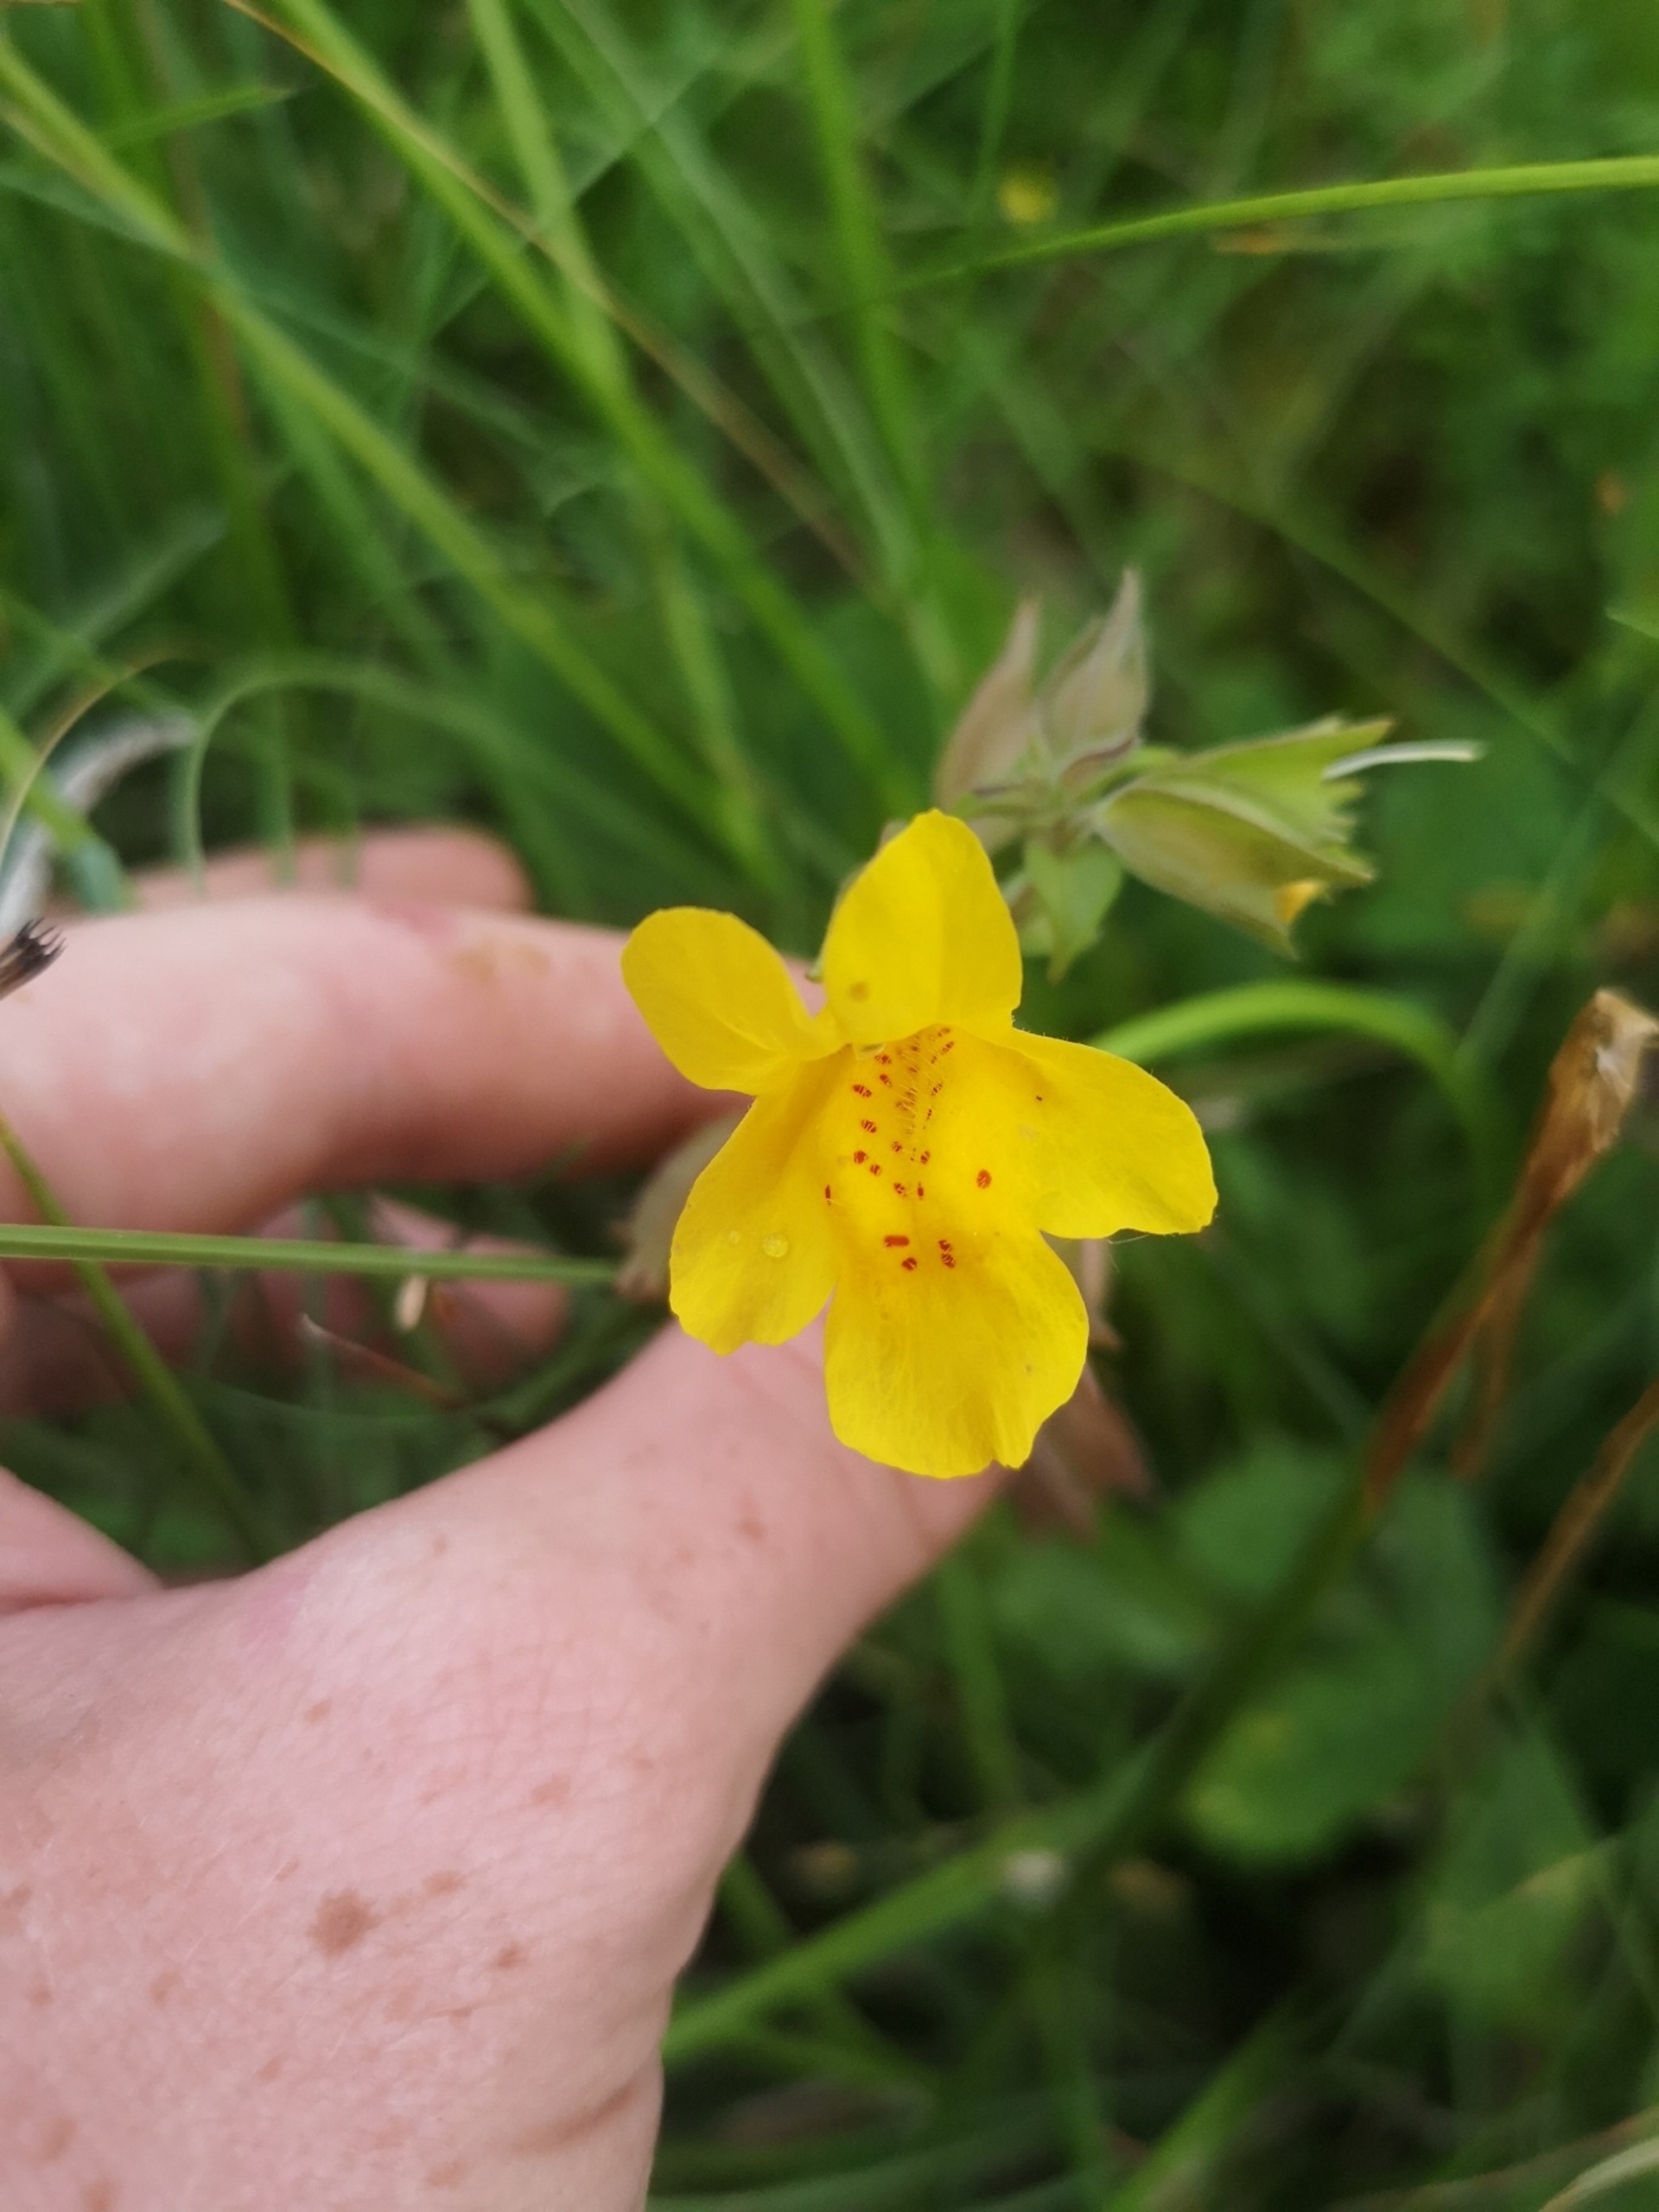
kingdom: Plantae
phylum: Tracheophyta
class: Magnoliopsida
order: Lamiales
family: Phrymaceae
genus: Erythranthe
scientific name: Erythranthe guttata
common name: Abeblomst
